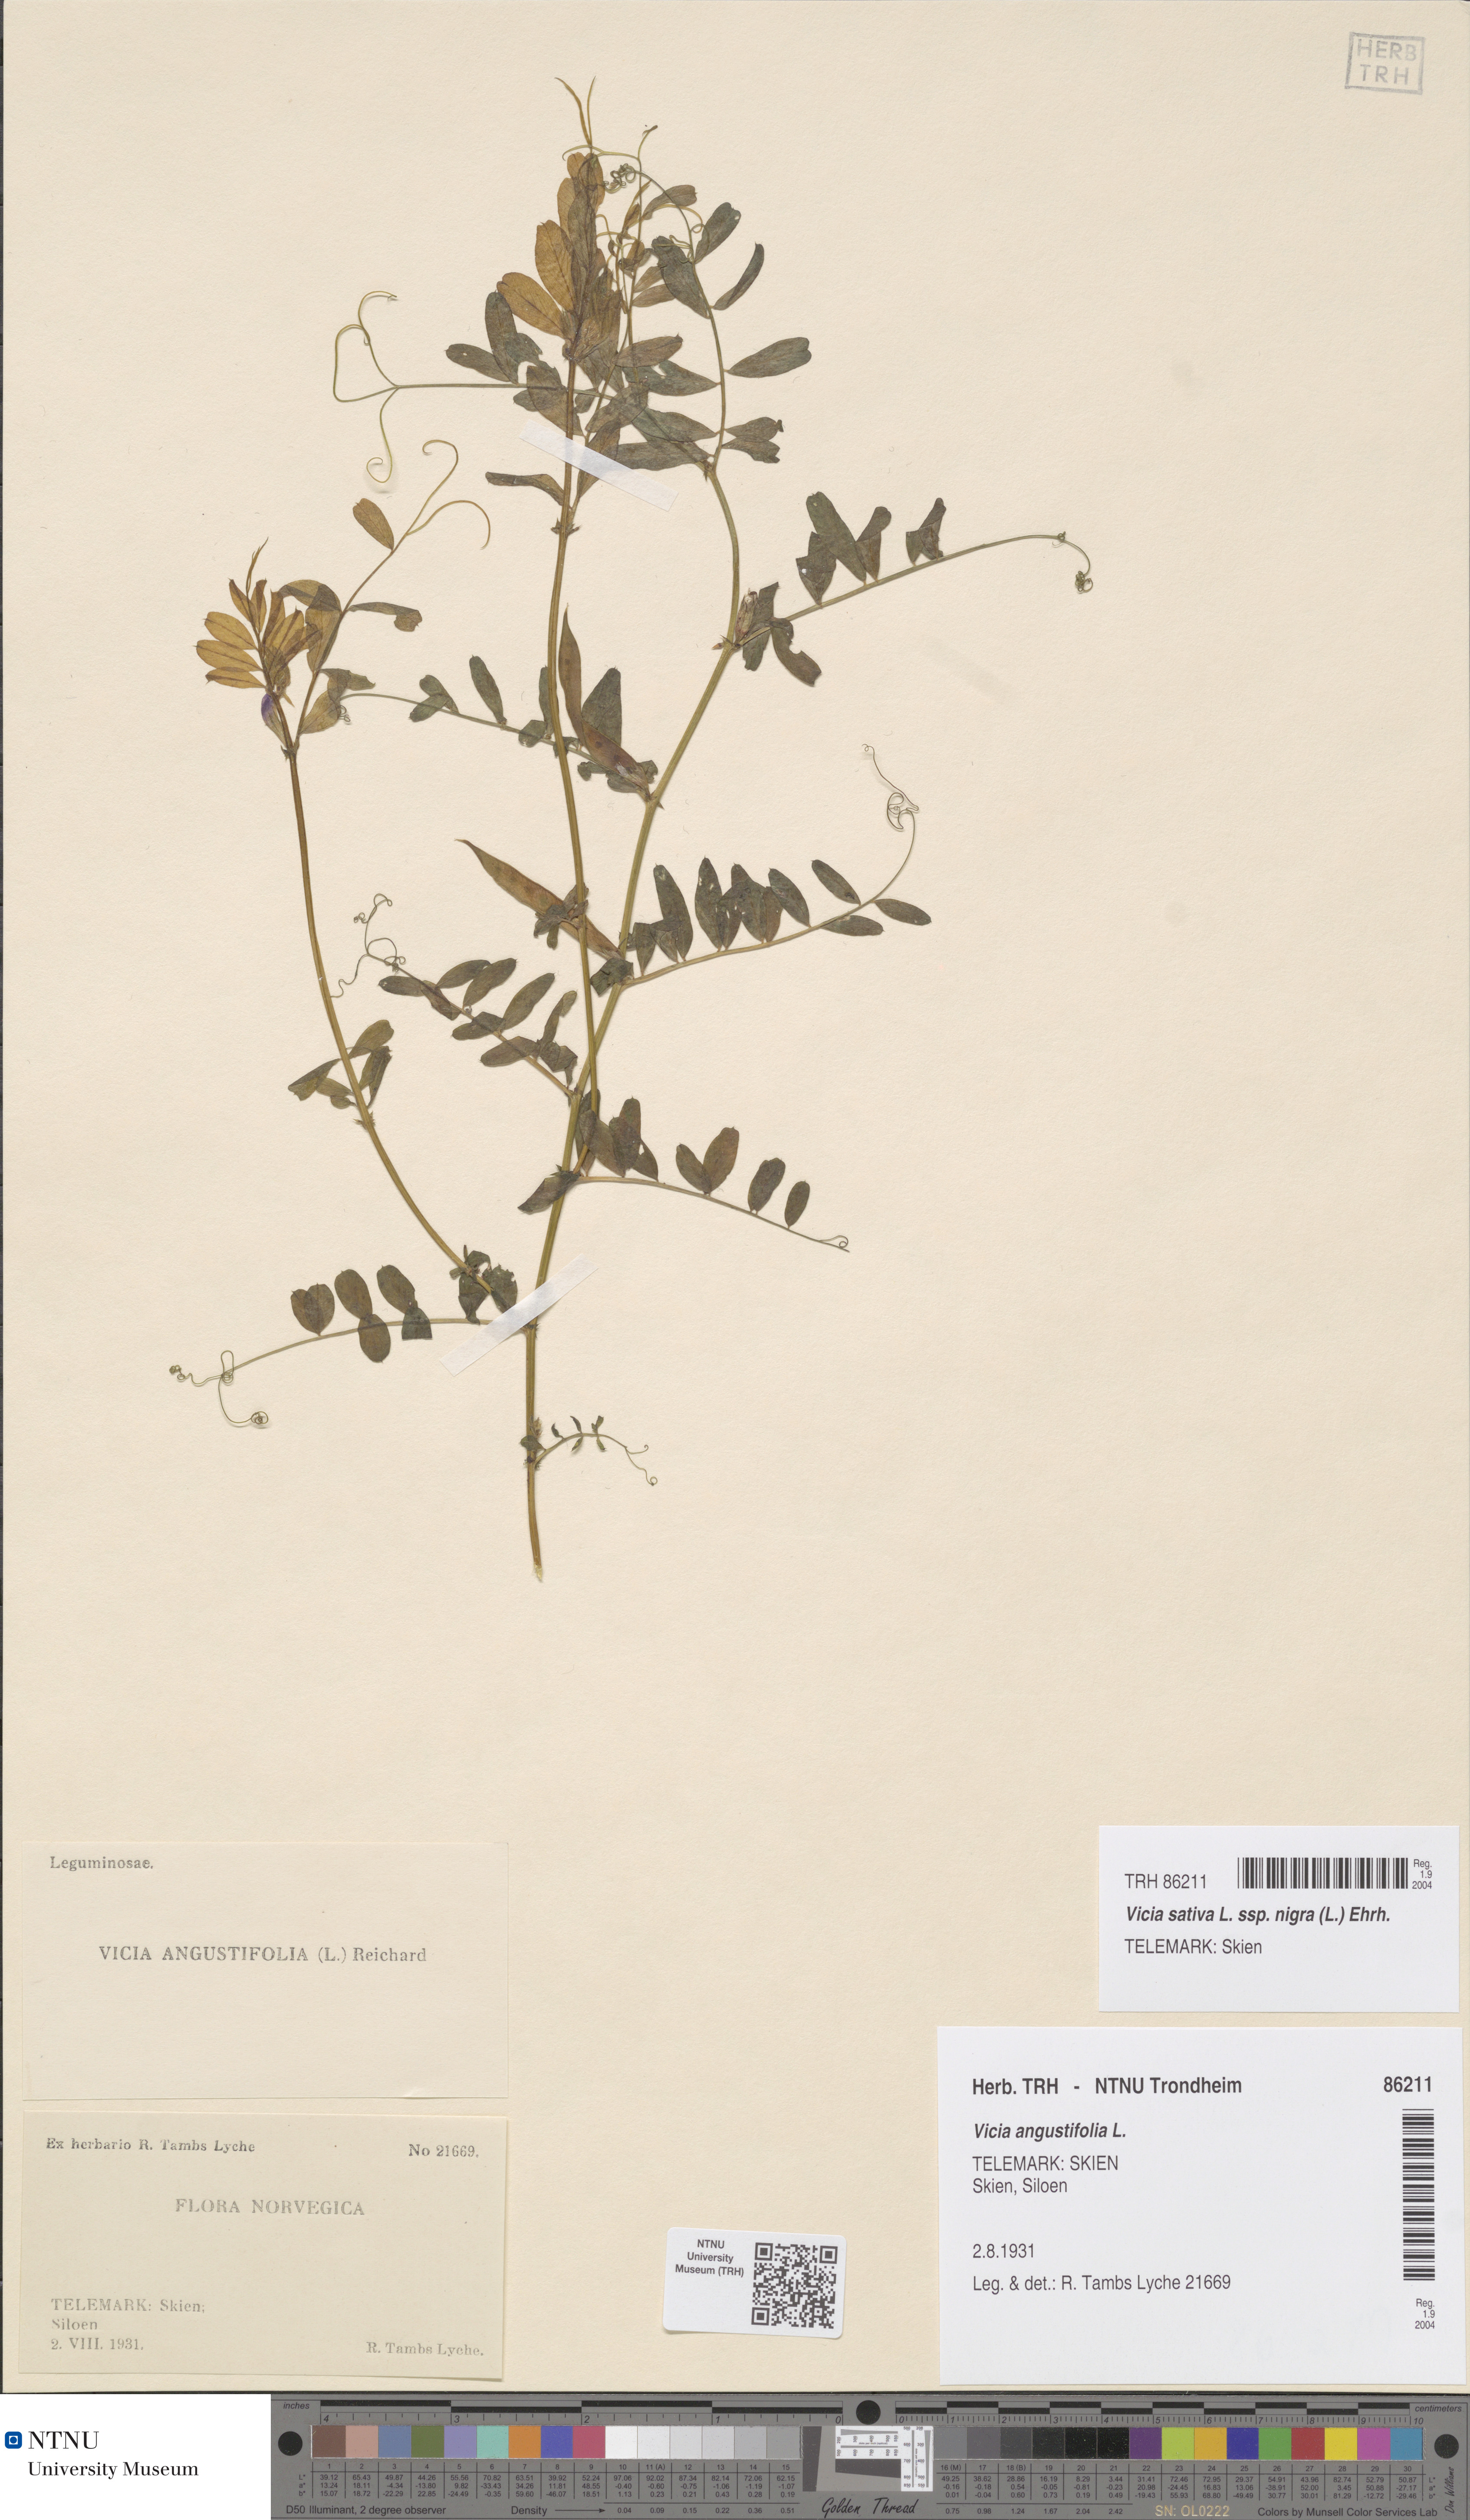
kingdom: Plantae
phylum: Tracheophyta
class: Magnoliopsida
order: Fabales
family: Fabaceae
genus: Vicia
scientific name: Vicia sativa
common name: Garden vetch
